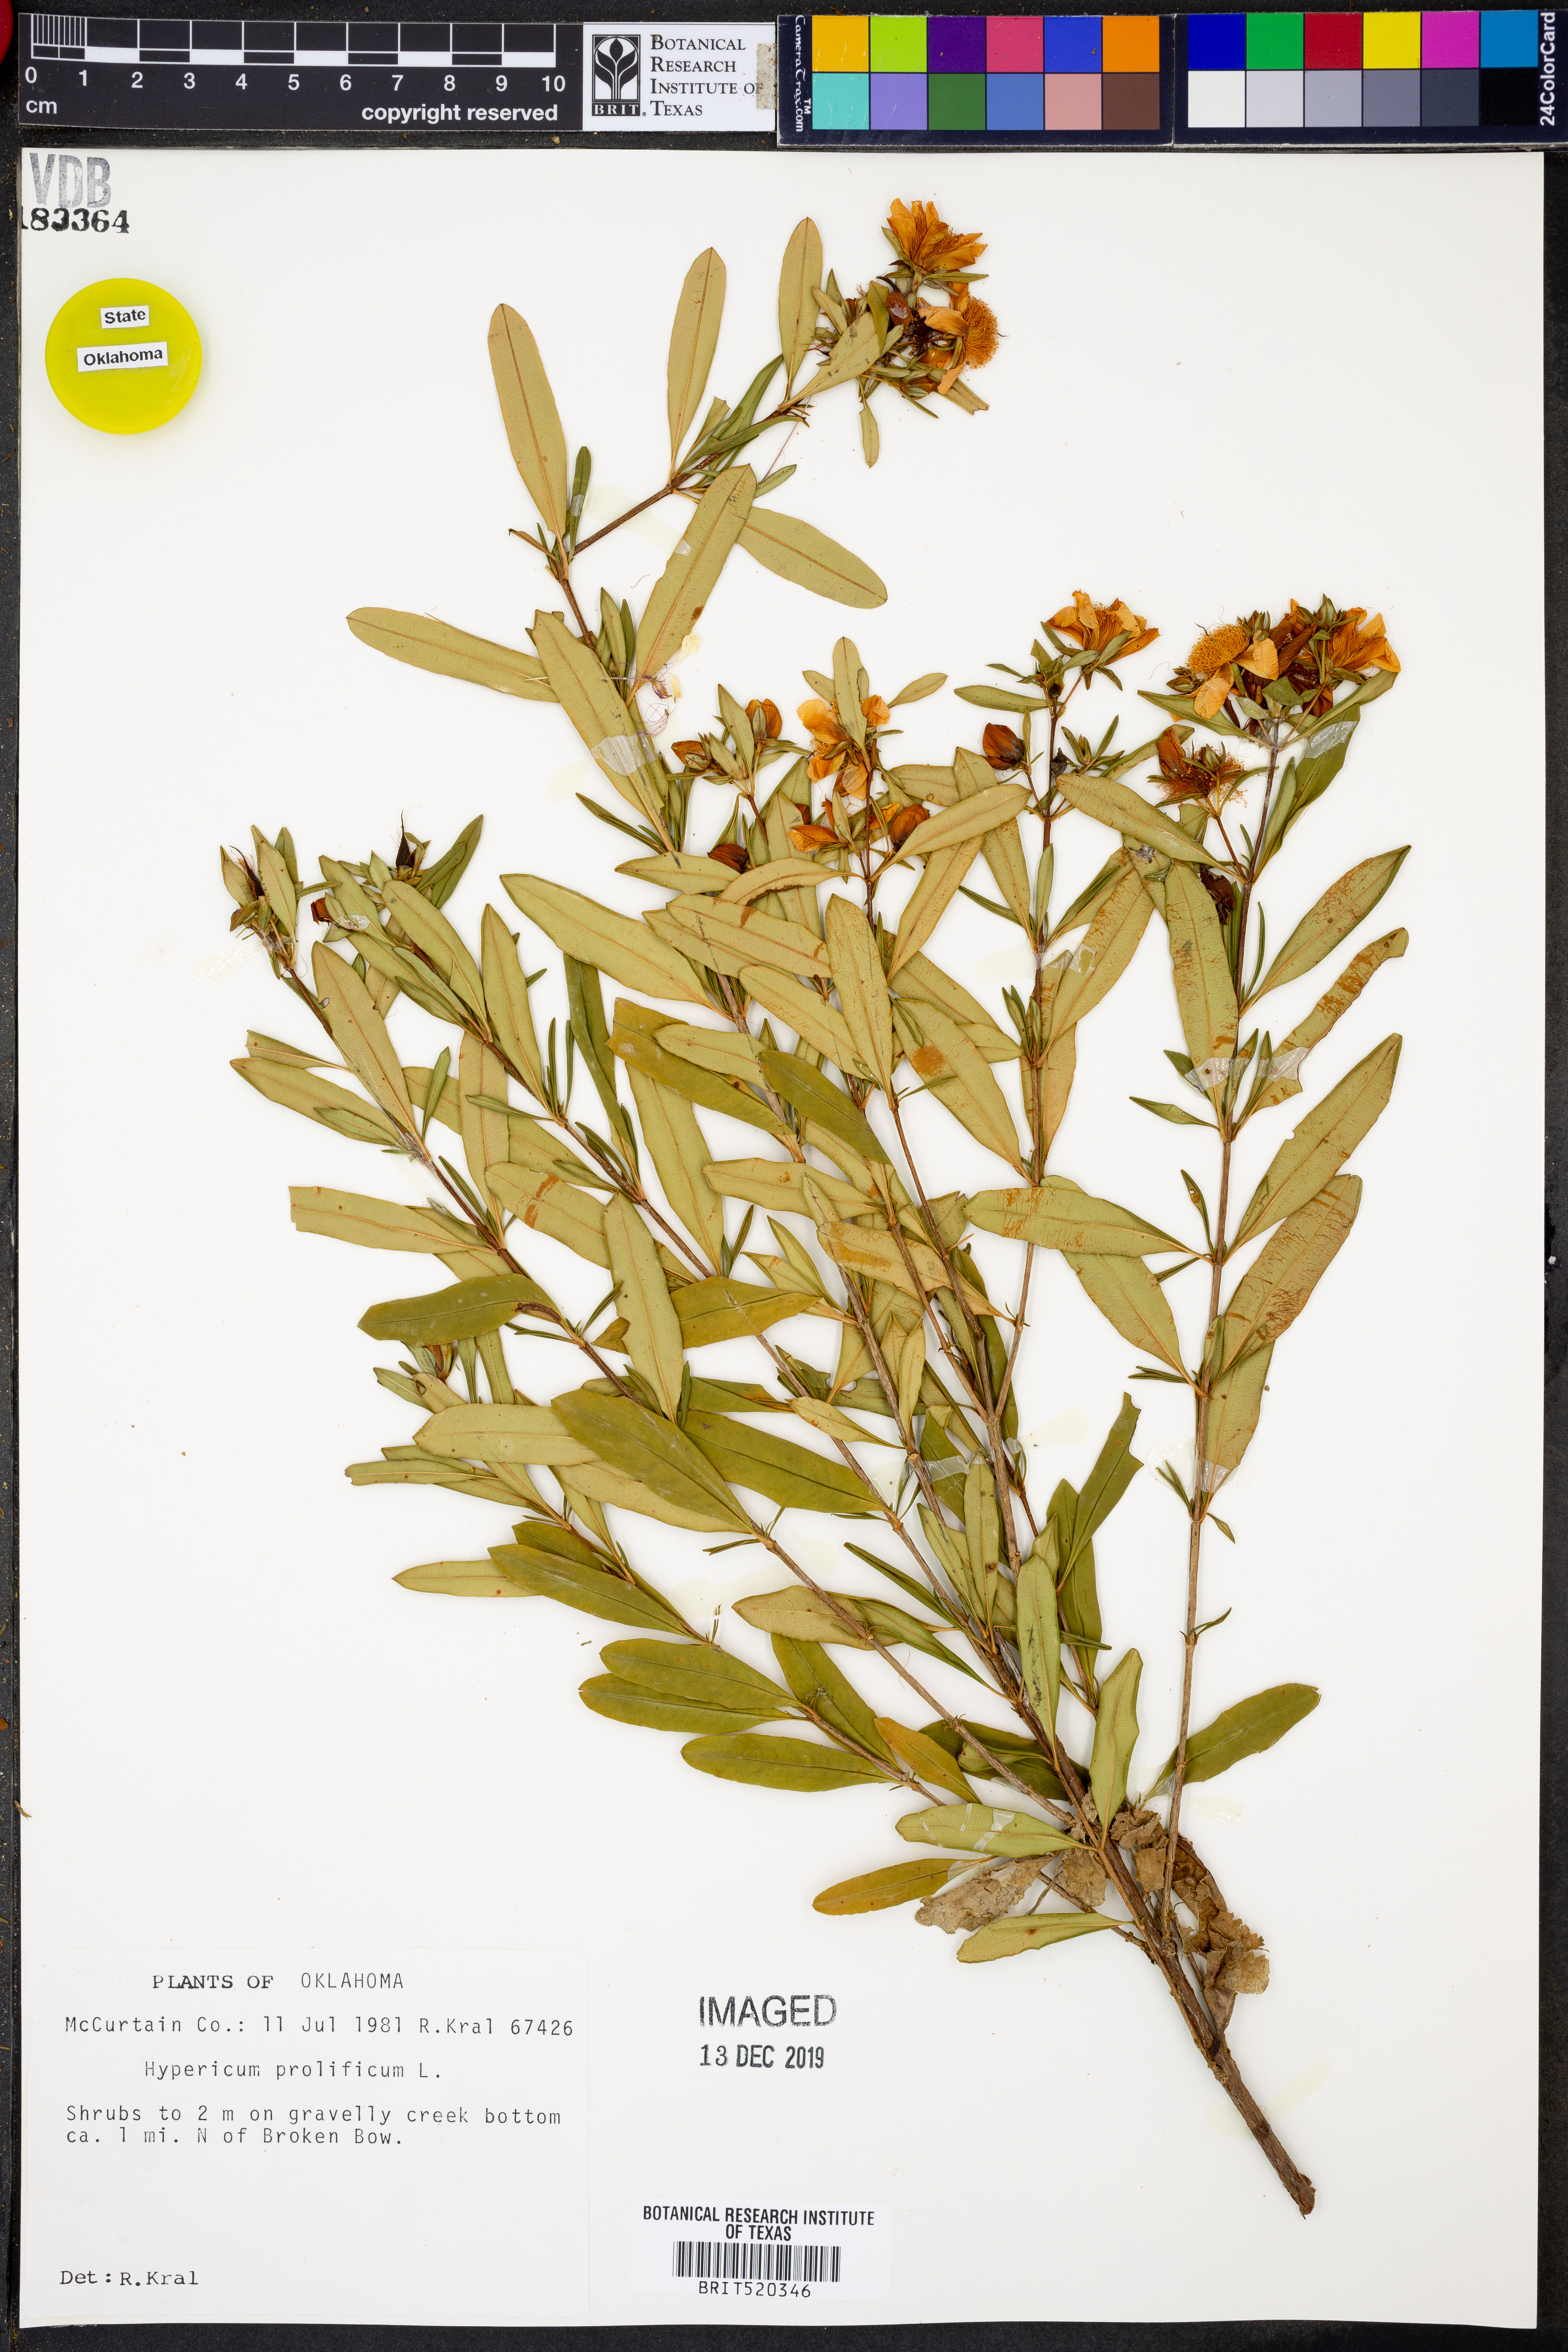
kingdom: Plantae
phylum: Tracheophyta
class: Magnoliopsida
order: Malpighiales
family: Hypericaceae
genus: Hypericum
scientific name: Hypericum prolificum
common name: Shrubby st. john's-wort
